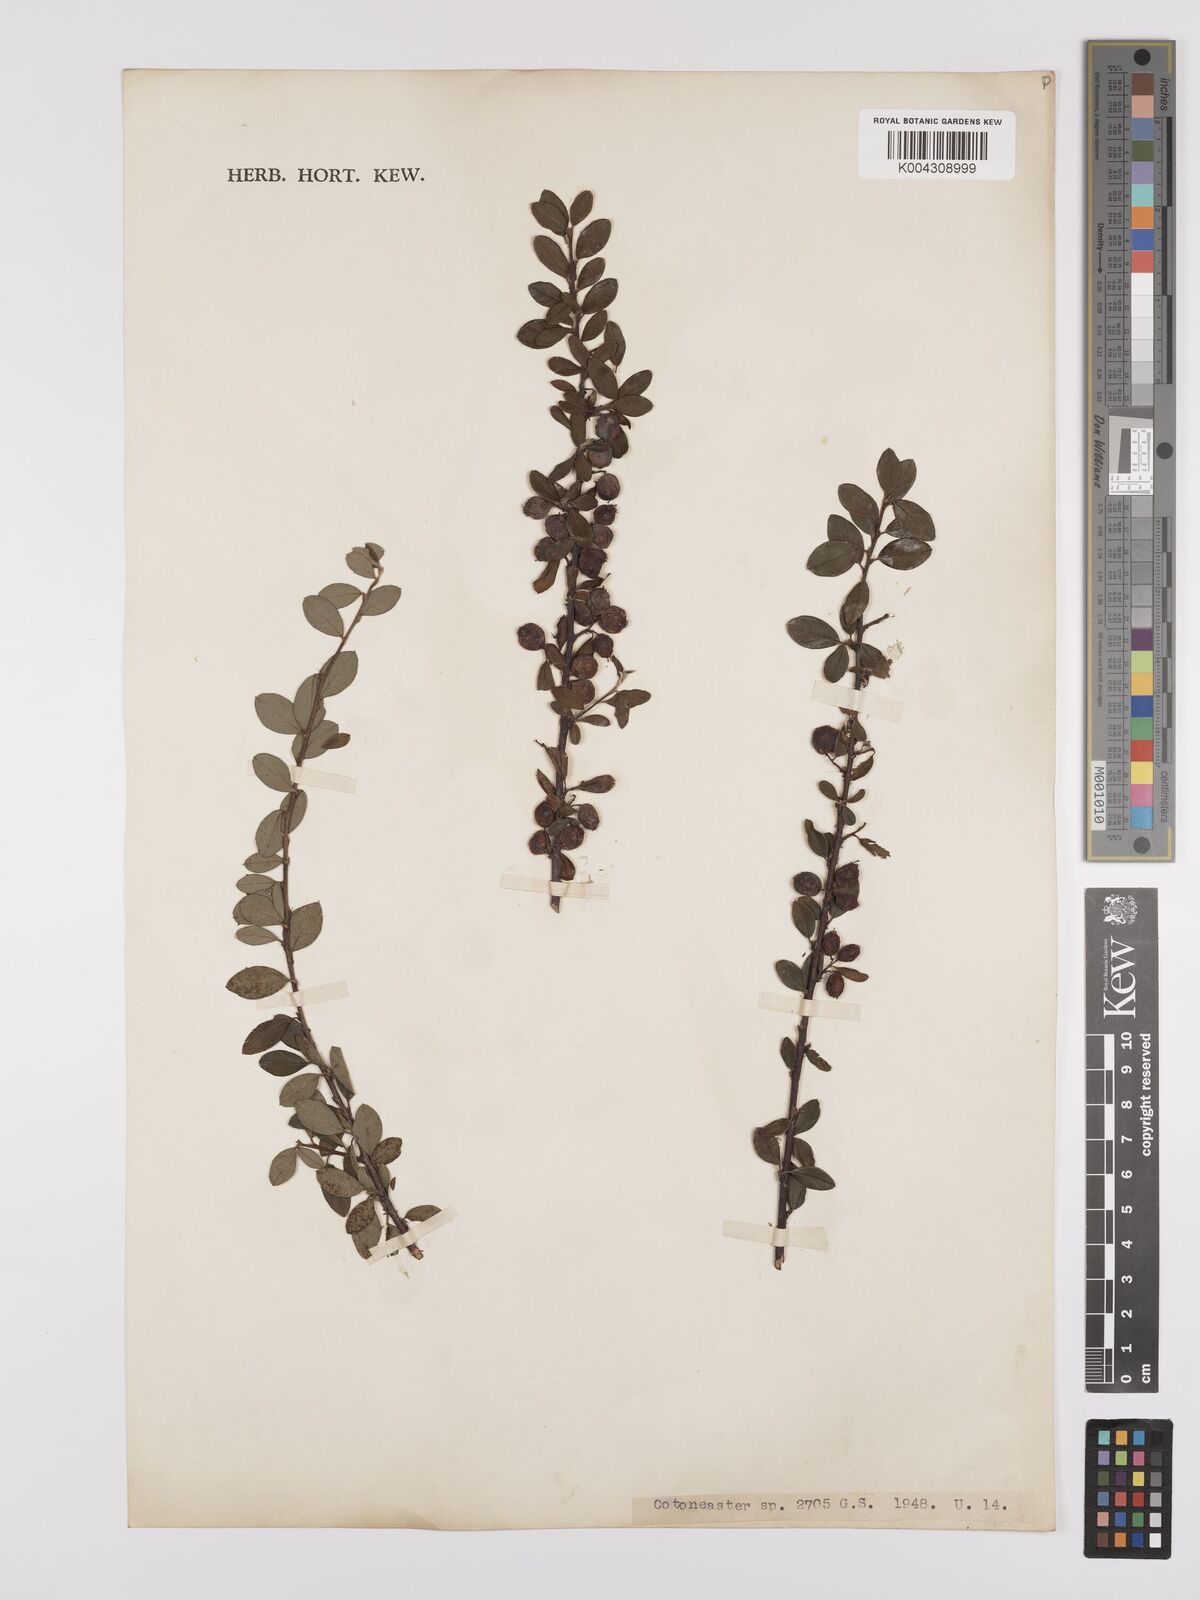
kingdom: Plantae
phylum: Tracheophyta
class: Magnoliopsida
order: Rosales
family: Rosaceae
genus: Cotoneaster
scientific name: Cotoneaster
